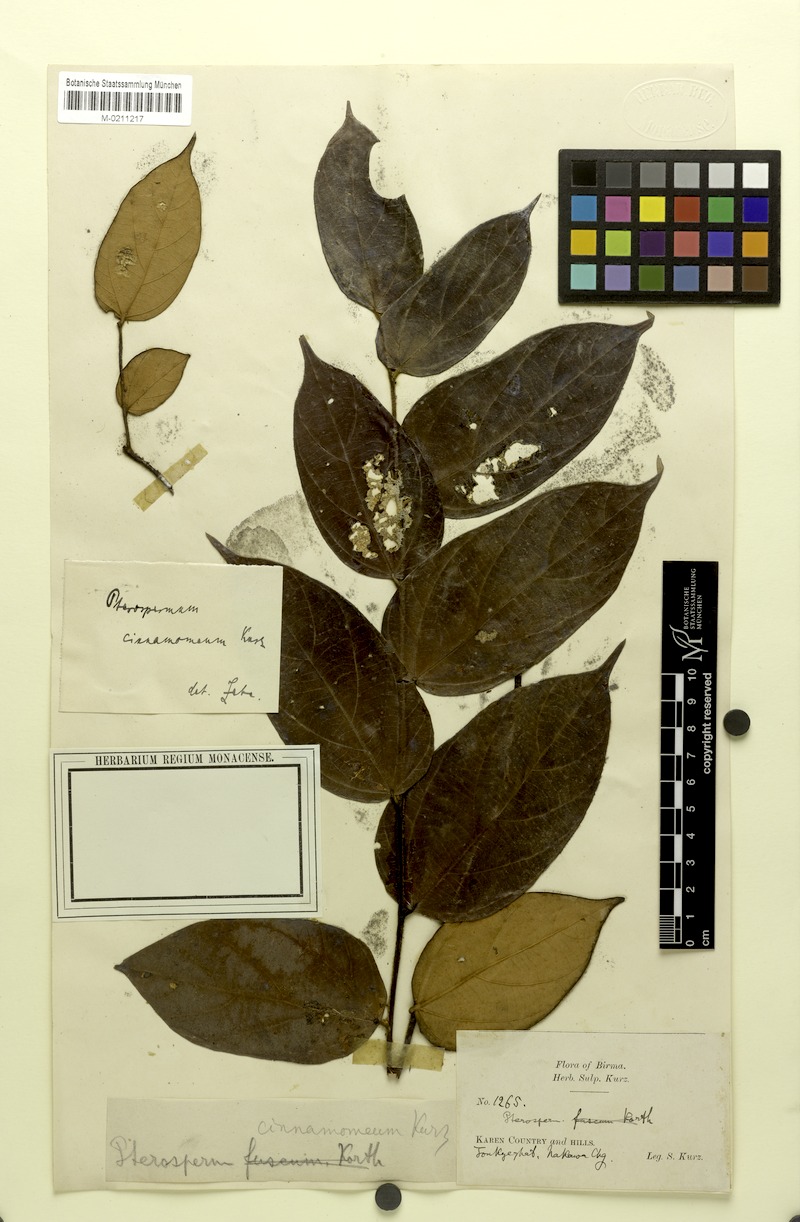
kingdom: Plantae
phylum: Tracheophyta
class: Magnoliopsida
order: Malvales
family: Malvaceae
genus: Pterospermum
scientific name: Pterospermum cinnamomeum
